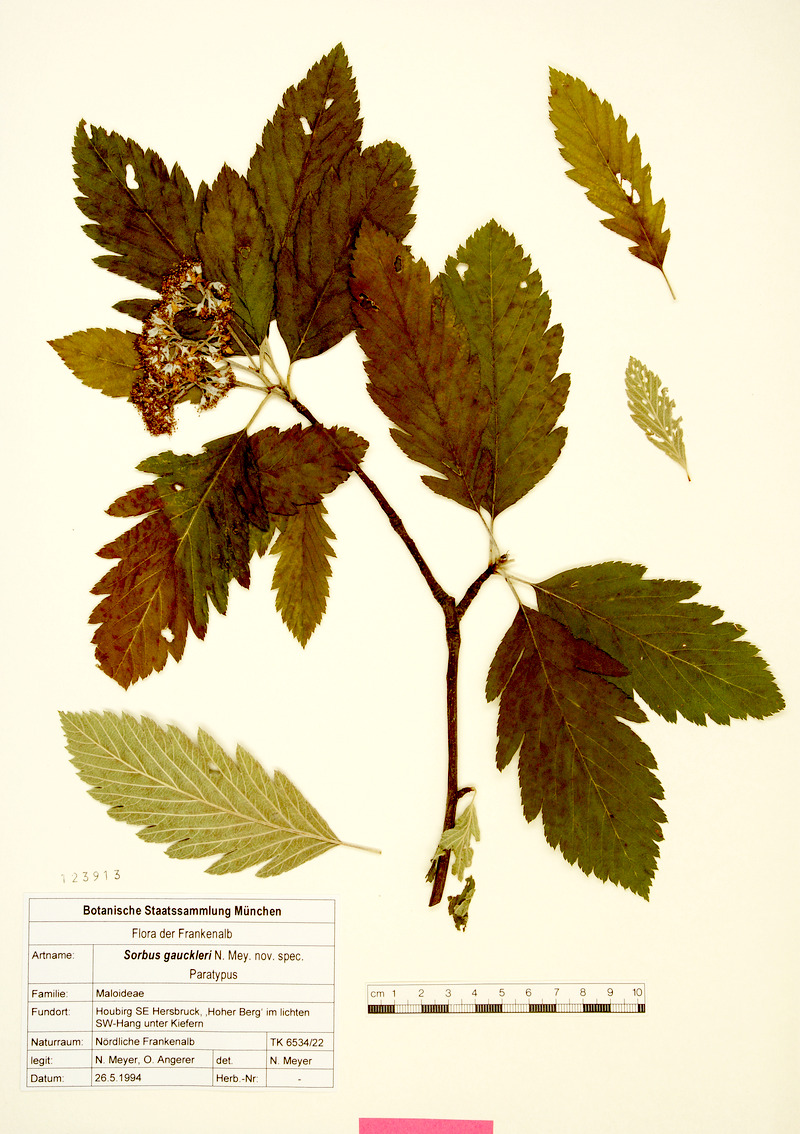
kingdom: Plantae
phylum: Tracheophyta
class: Magnoliopsida
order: Rosales
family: Rosaceae
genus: Hedlundia
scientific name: Hedlundia gauckleri
